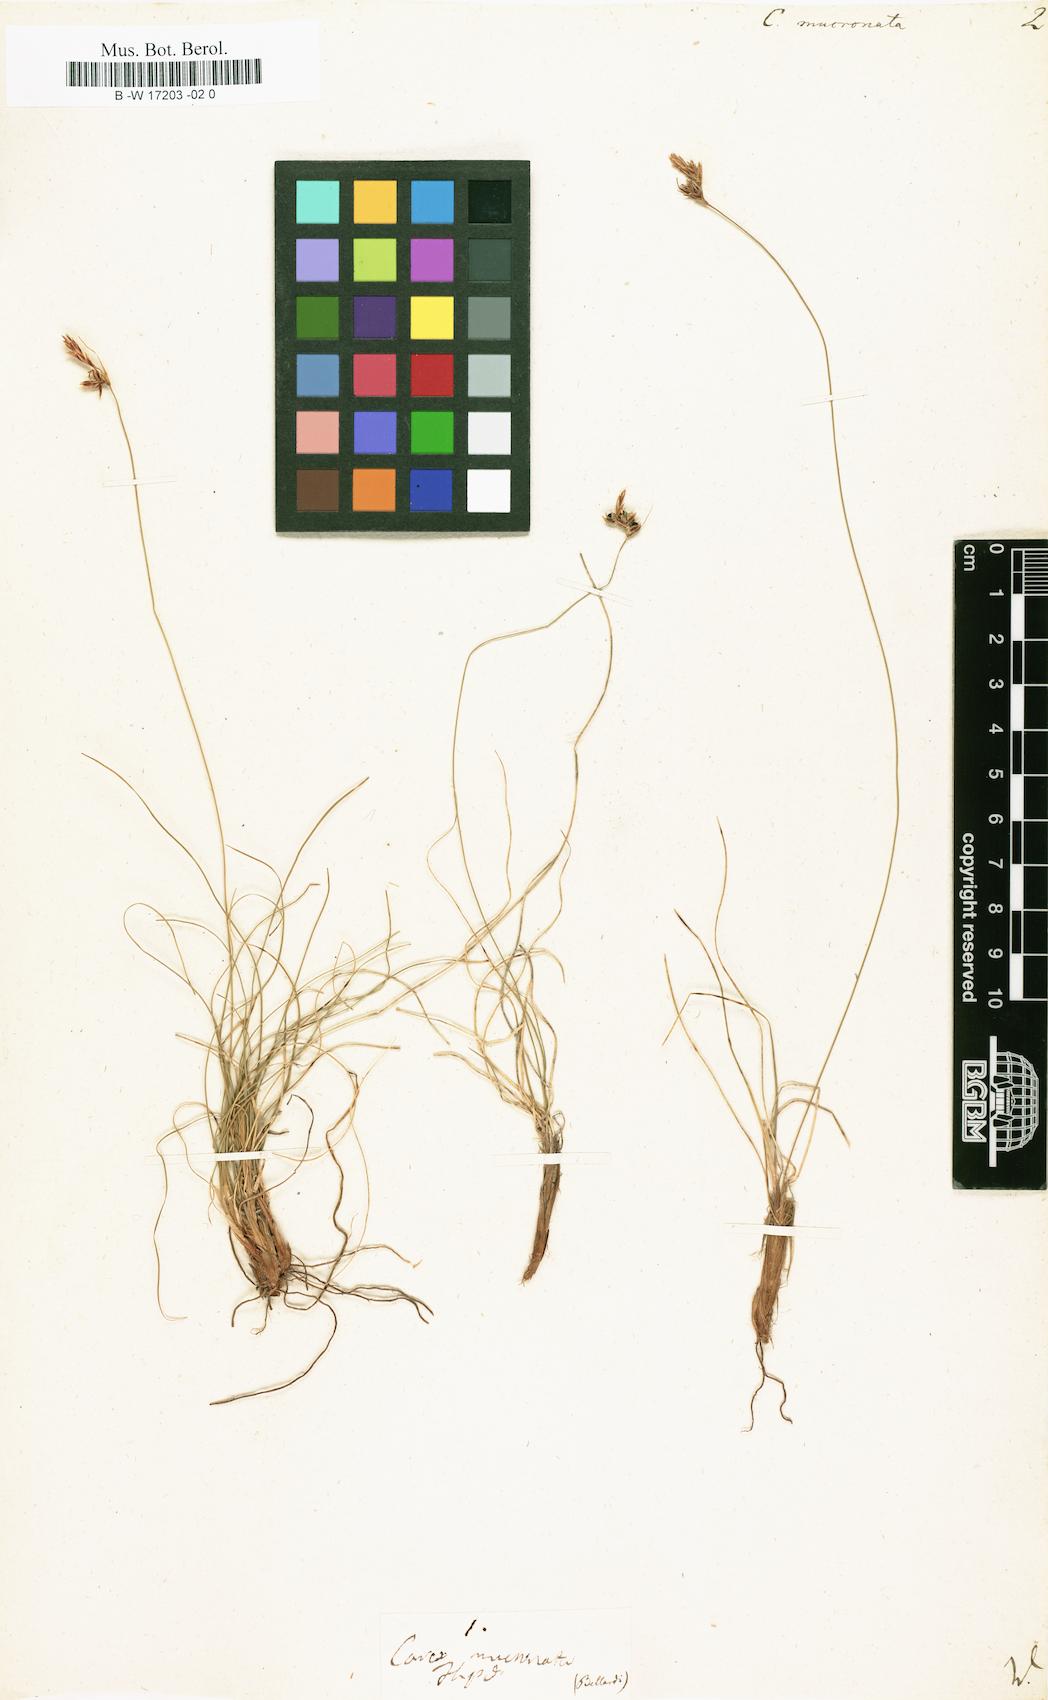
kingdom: Plantae
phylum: Tracheophyta
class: Liliopsida
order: Poales
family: Cyperaceae
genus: Carex
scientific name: Carex mucronata
